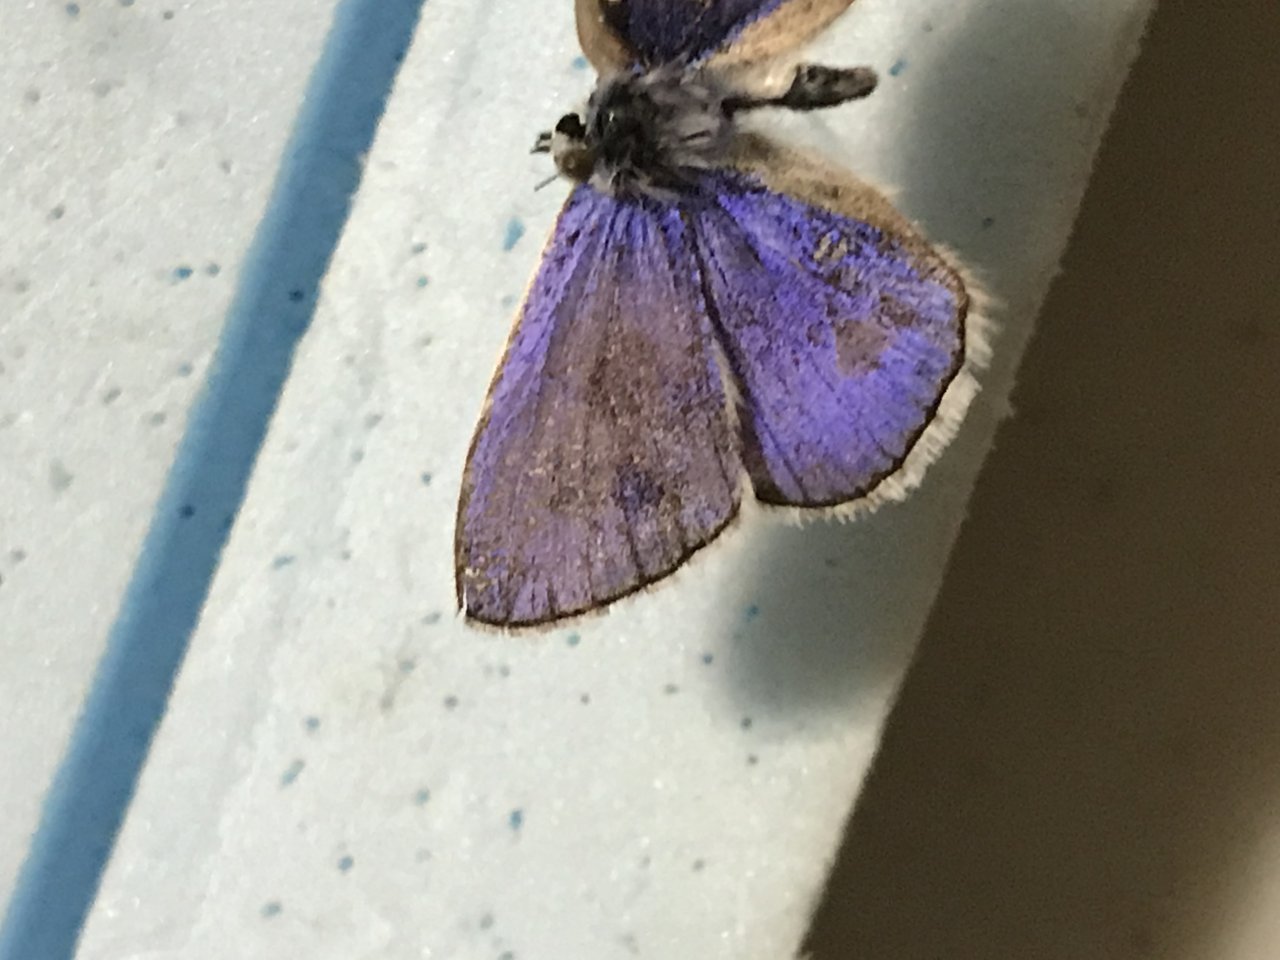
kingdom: Animalia
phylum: Arthropoda
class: Insecta
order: Lepidoptera
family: Lycaenidae
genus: Polyommatus
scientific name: Polyommatus icarus
